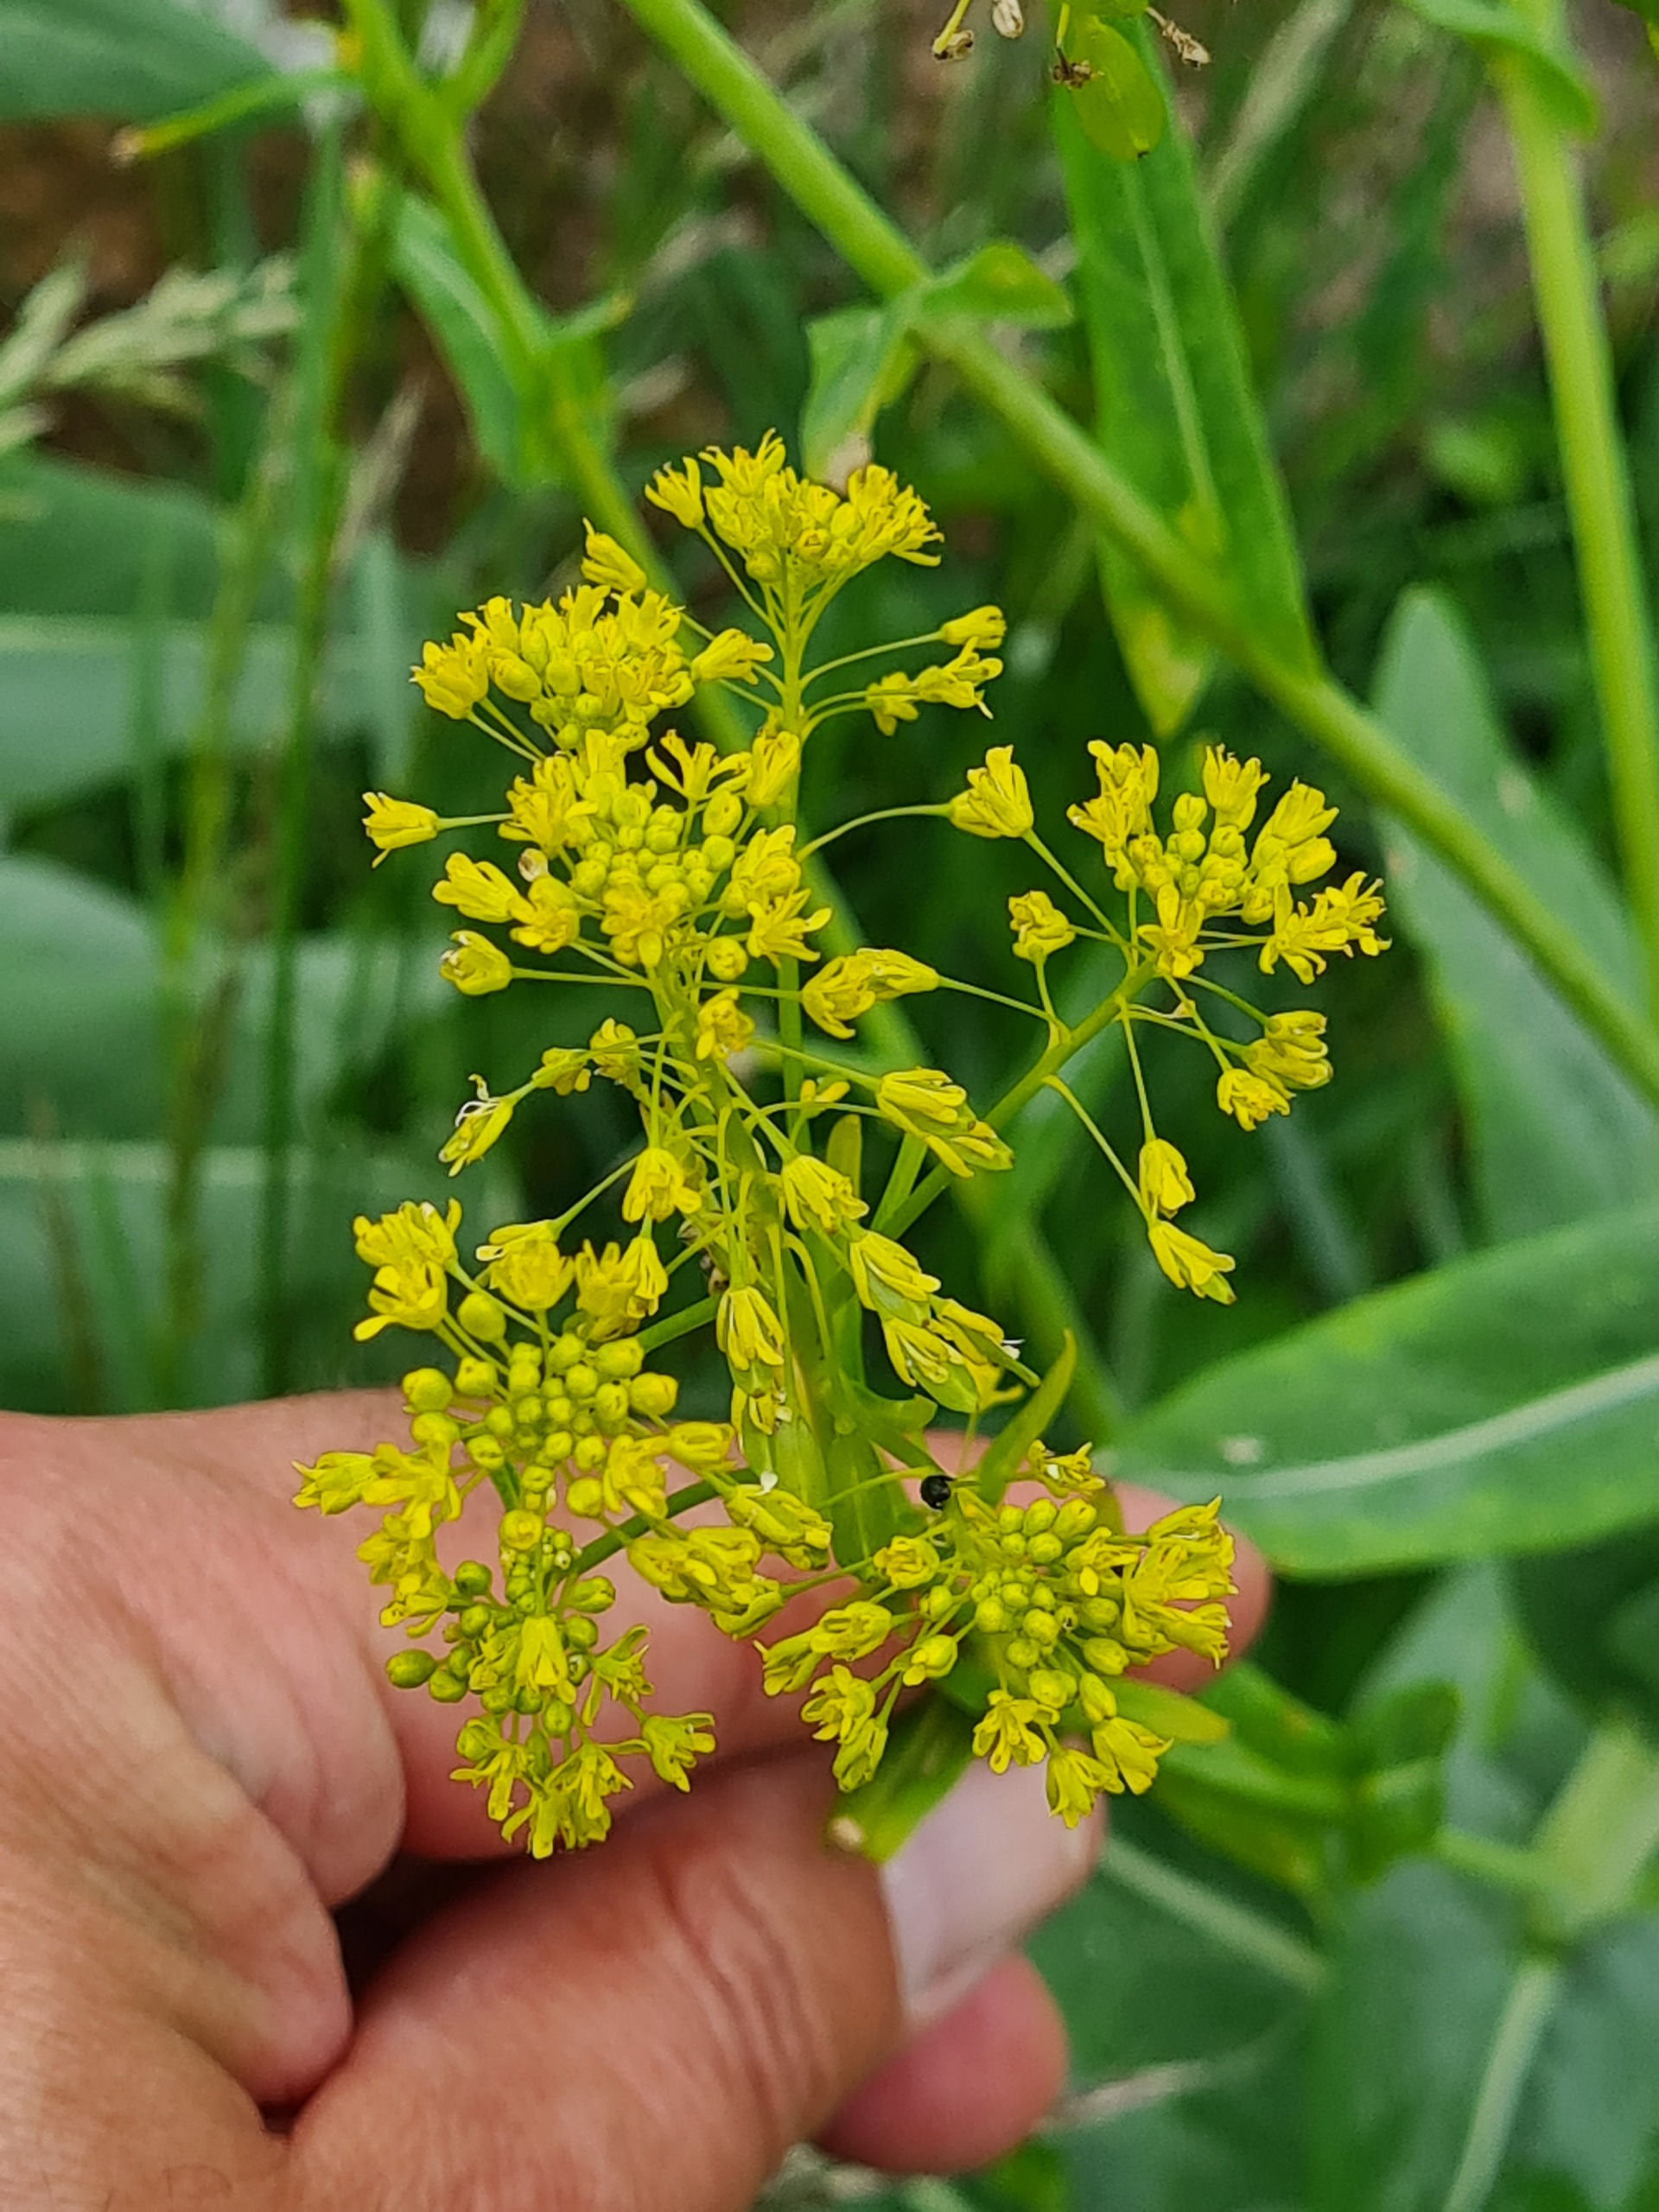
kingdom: Plantae
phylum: Tracheophyta
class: Magnoliopsida
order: Brassicales
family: Brassicaceae
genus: Isatis
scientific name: Isatis tinctoria
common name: Farve-vajd
